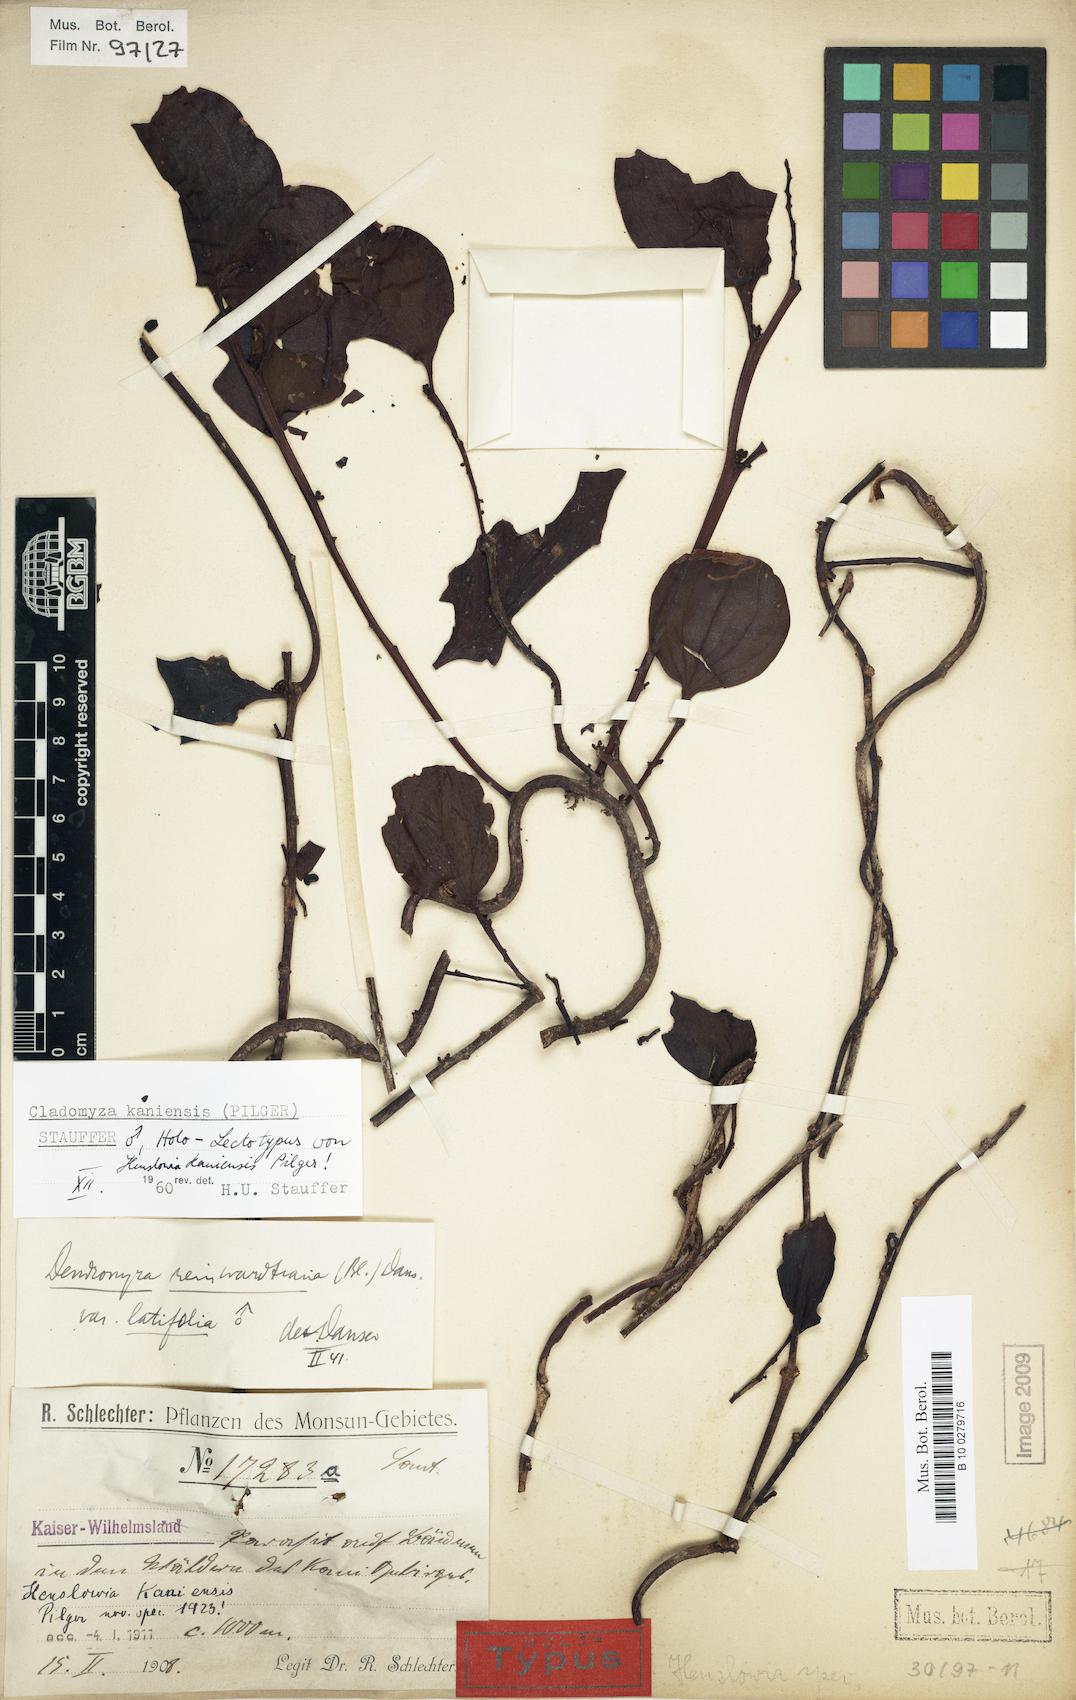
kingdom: Plantae
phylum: Tracheophyta
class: Magnoliopsida
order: Santalales
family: Amphorogynaceae
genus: Cladomyza
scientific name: Cladomyza kaniensis
